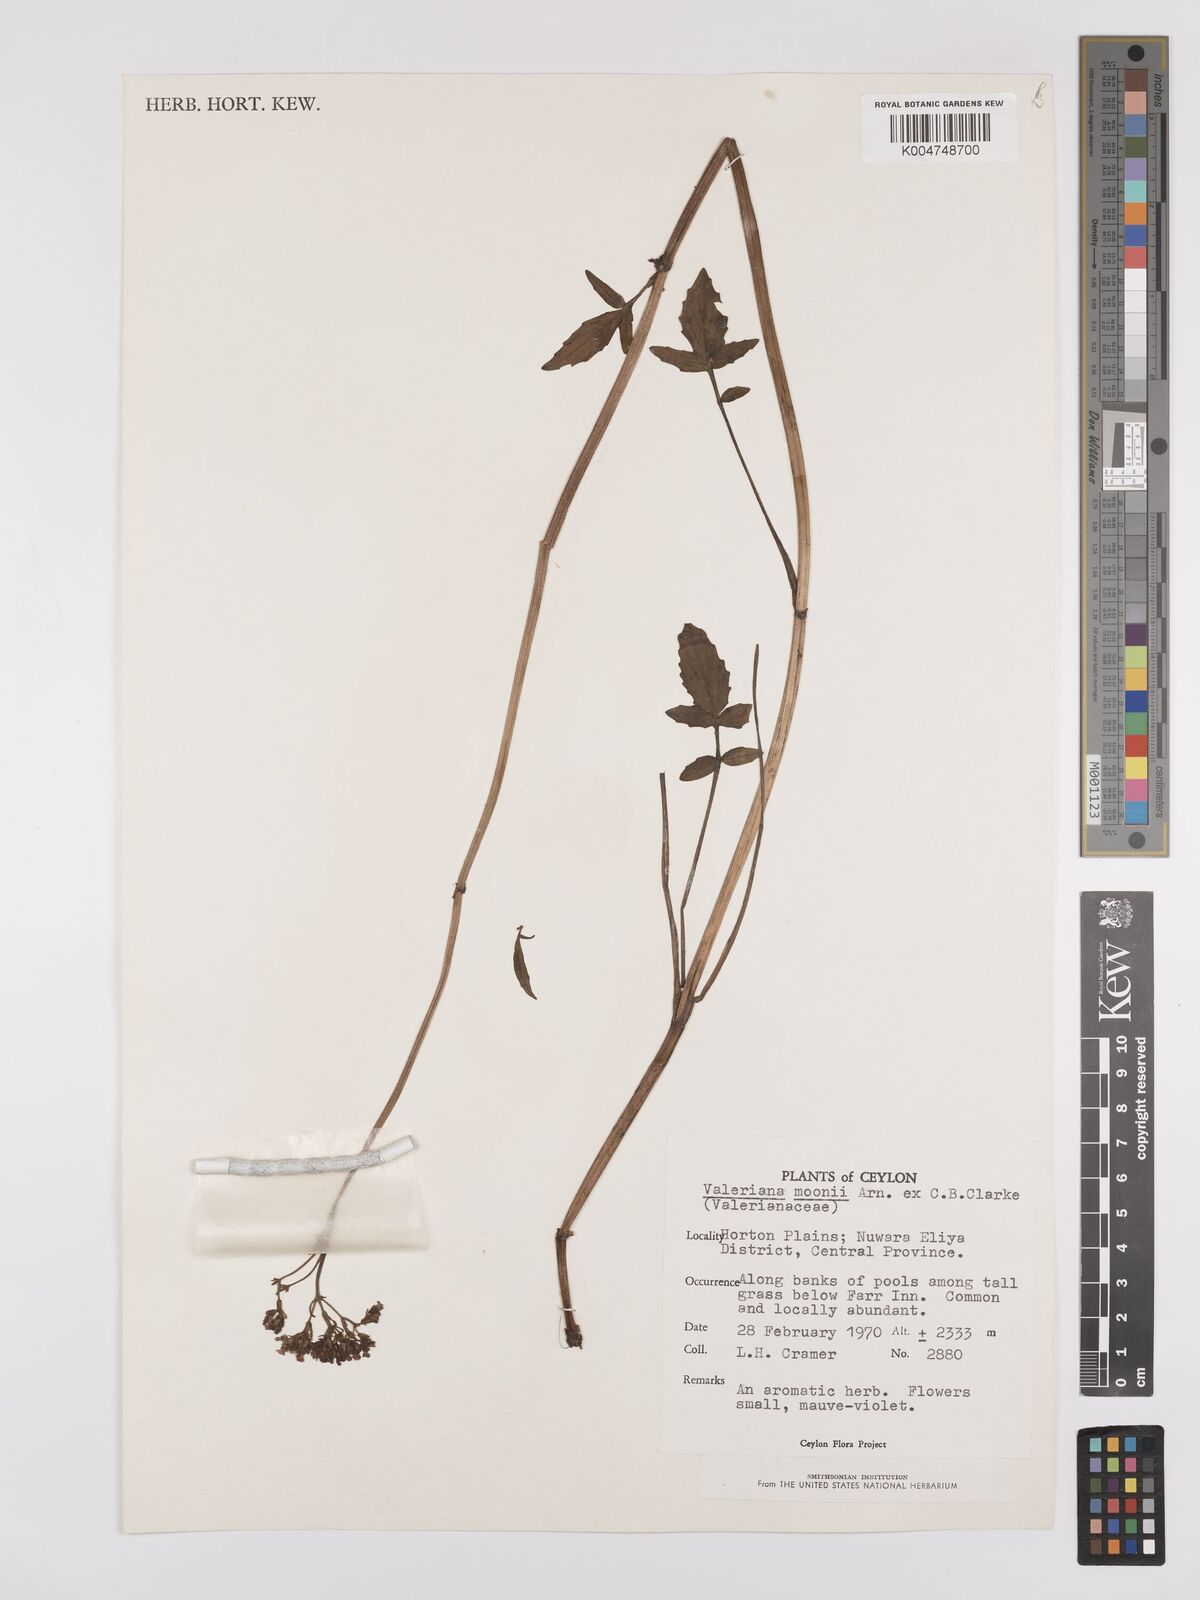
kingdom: Plantae
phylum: Tracheophyta
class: Magnoliopsida
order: Dipsacales
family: Caprifoliaceae
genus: Valeriana
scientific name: Valeriana moonii
